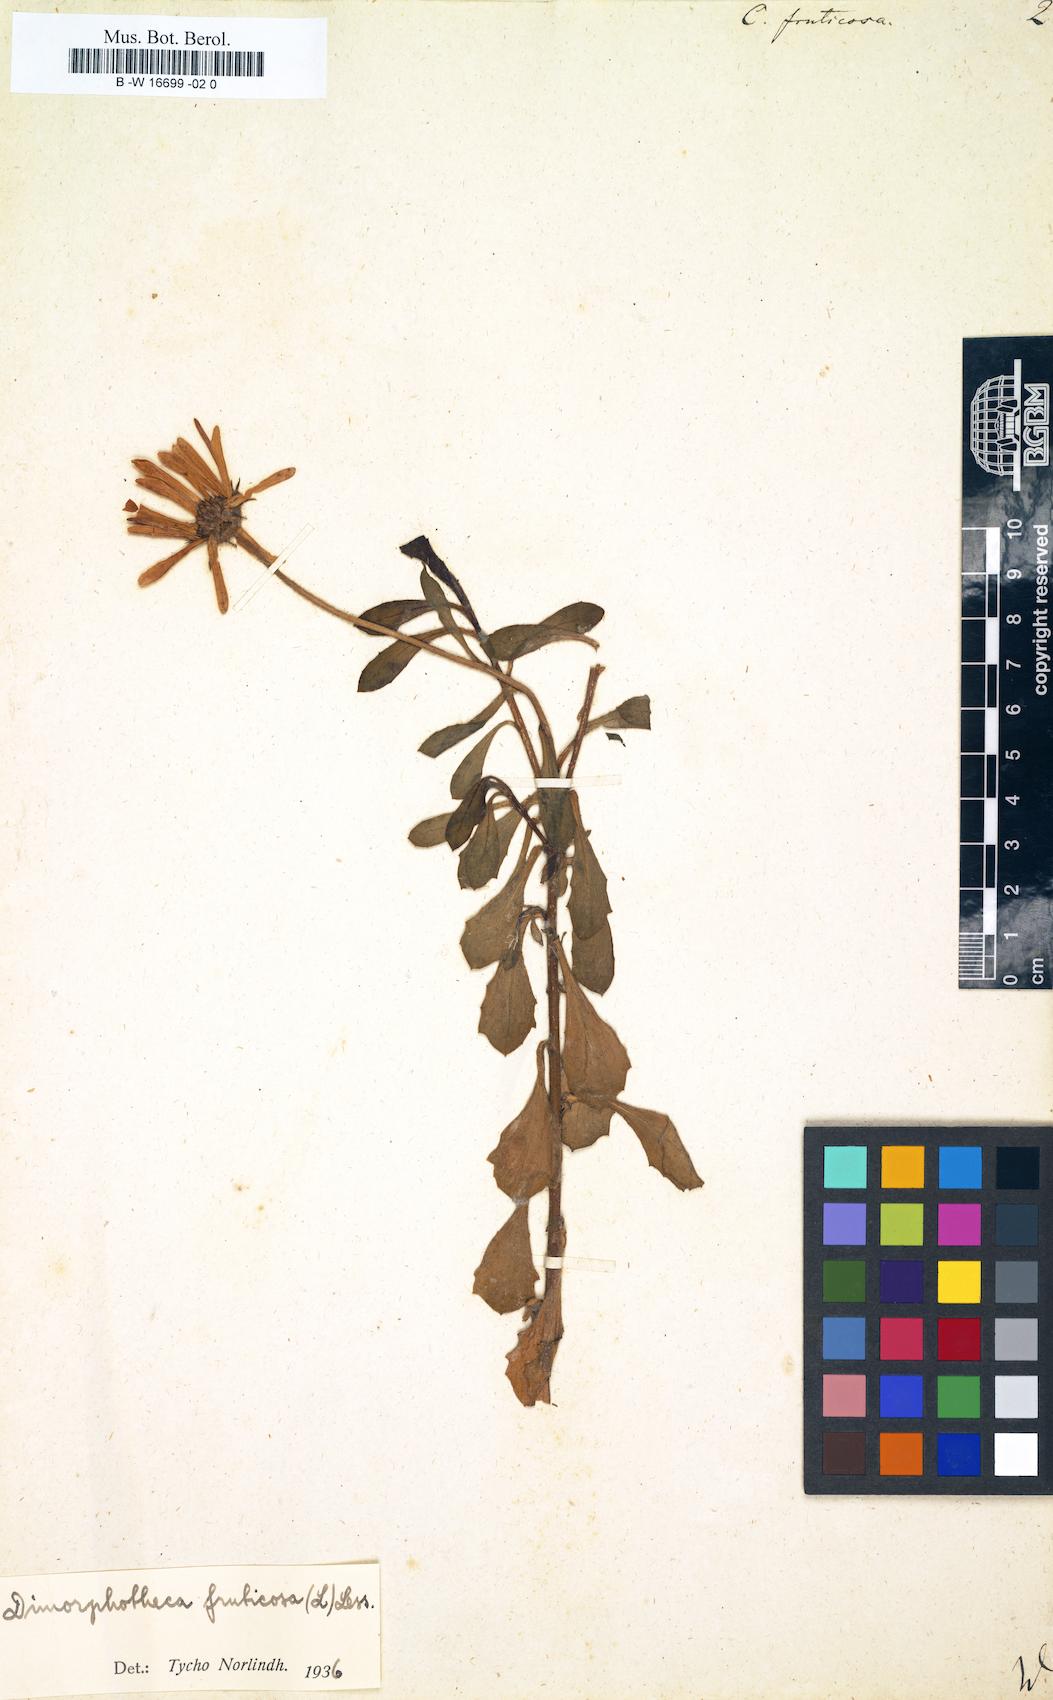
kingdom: Plantae
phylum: Tracheophyta
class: Magnoliopsida
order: Asterales
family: Asteraceae
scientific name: Asteraceae
